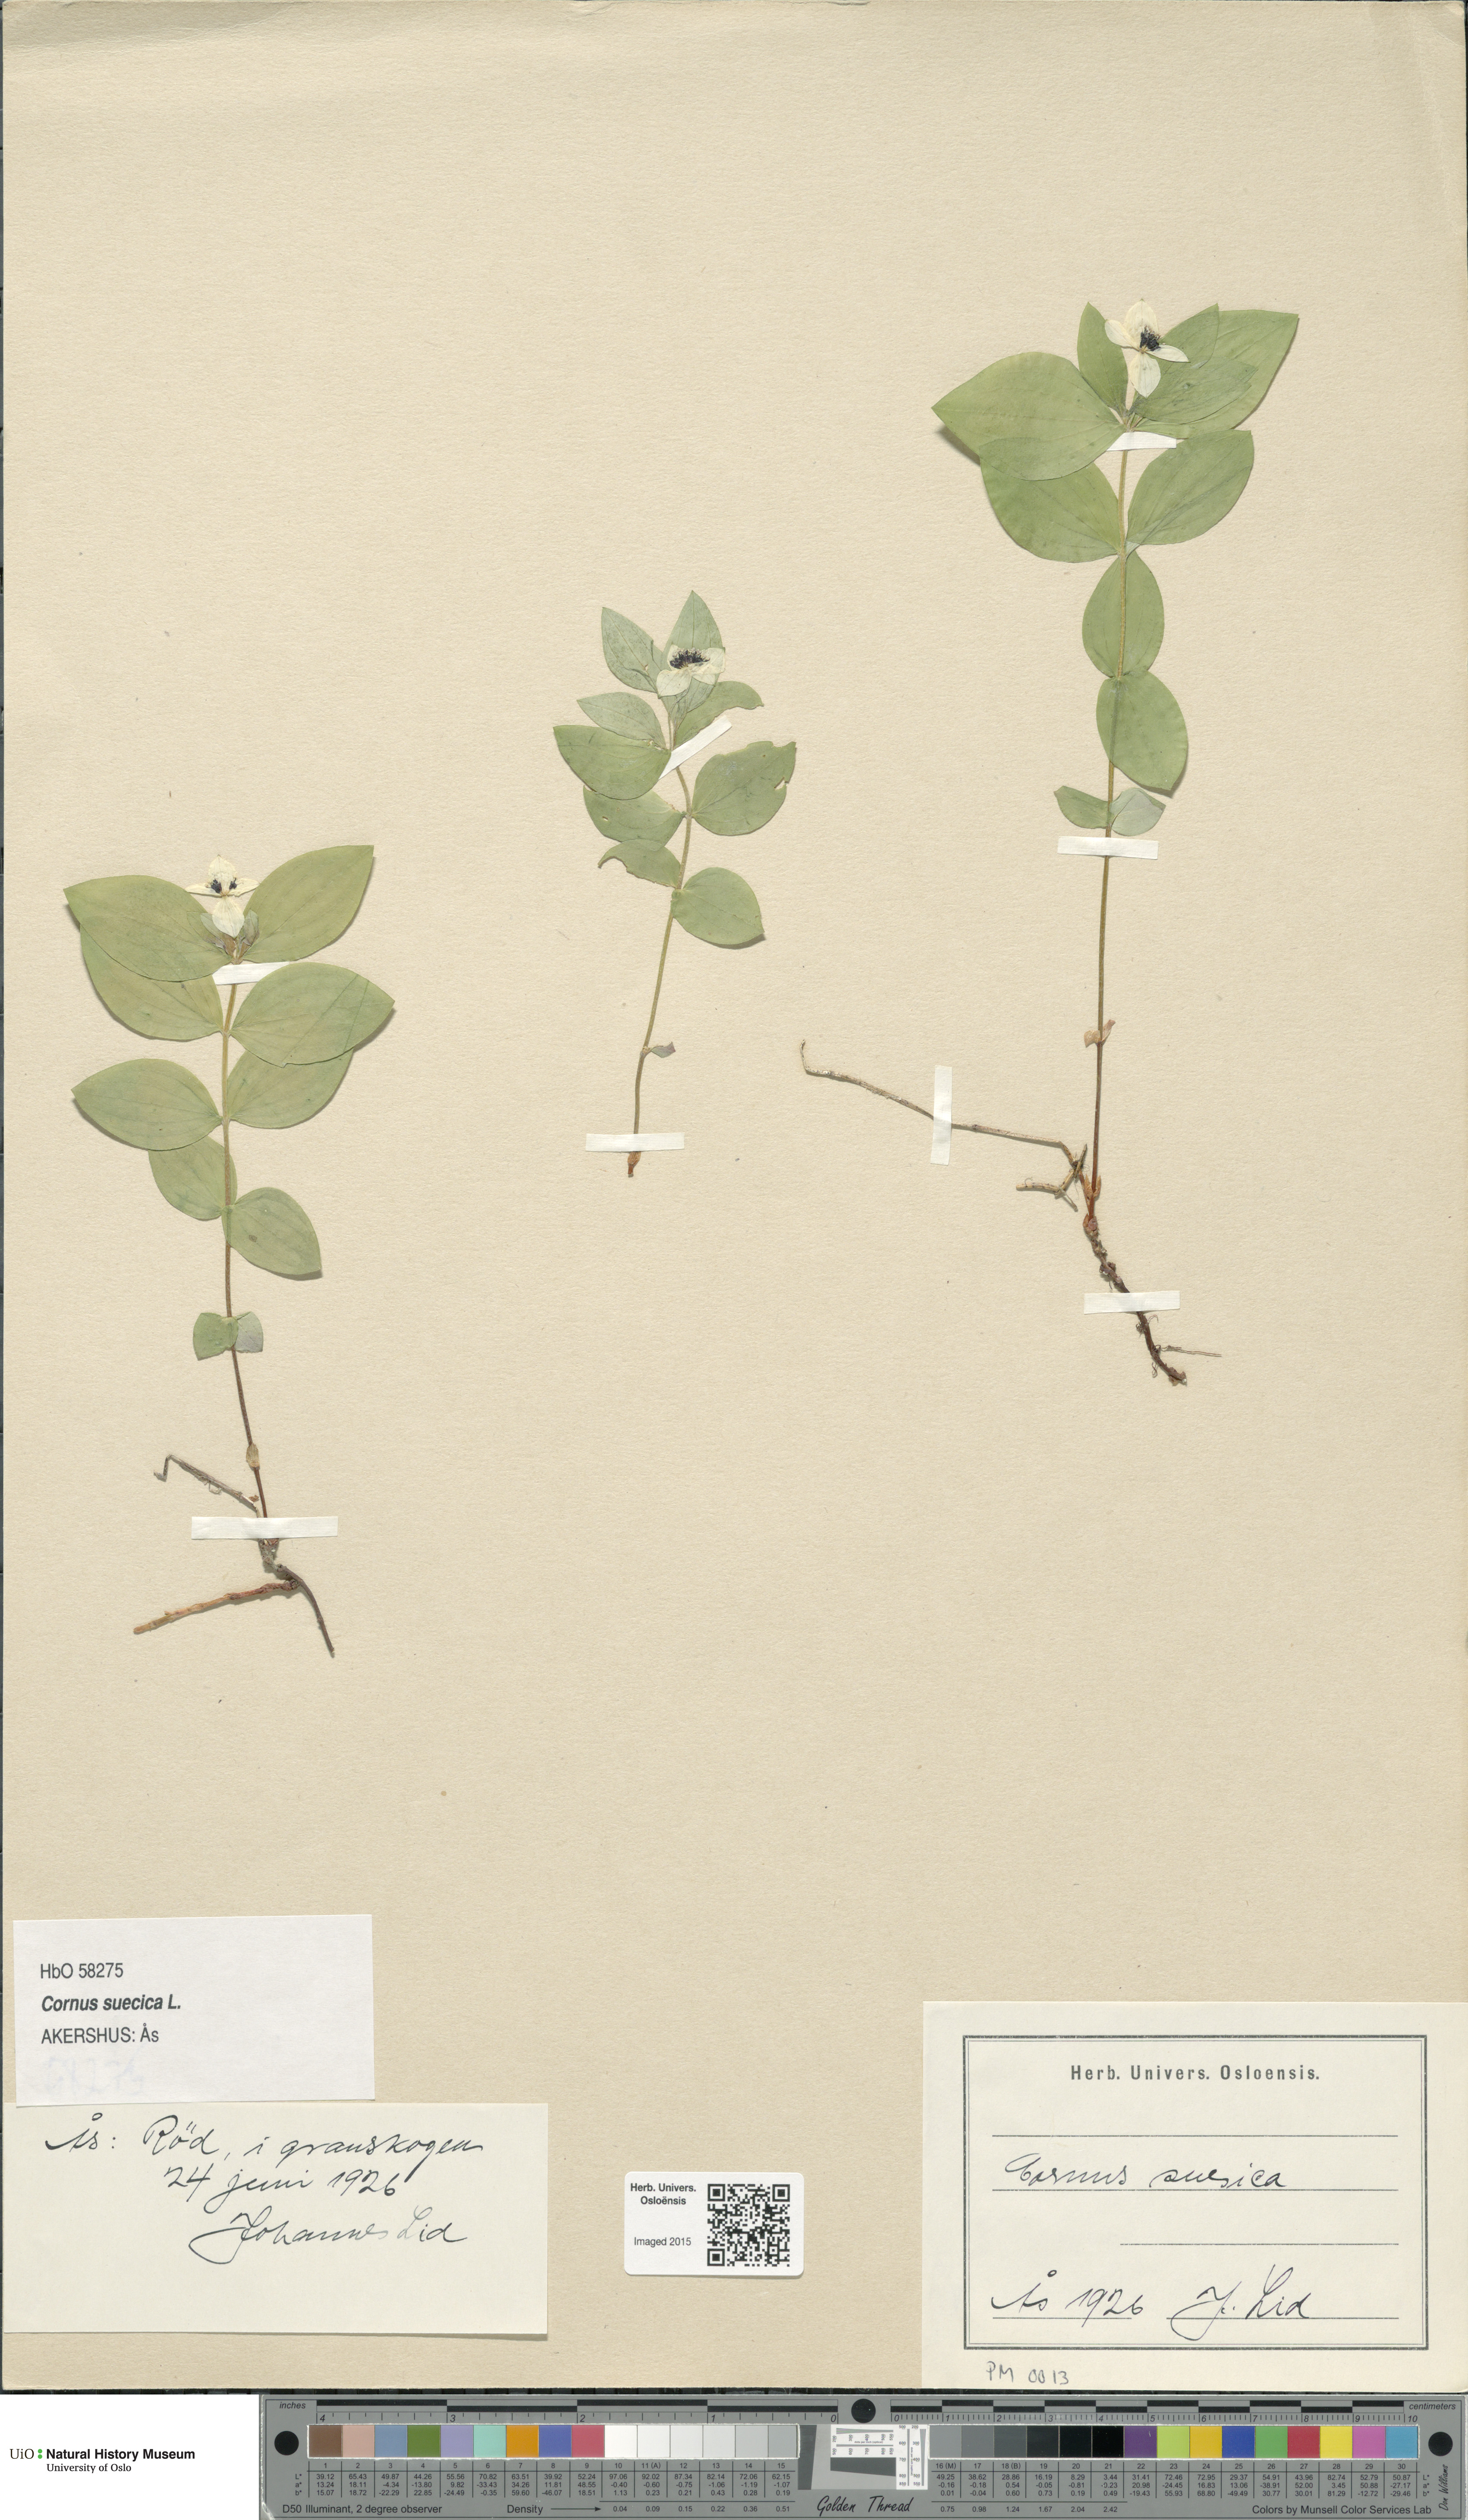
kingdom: Plantae
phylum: Tracheophyta
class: Magnoliopsida
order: Cornales
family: Cornaceae
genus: Cornus
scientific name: Cornus suecica
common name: Dwarf cornel
